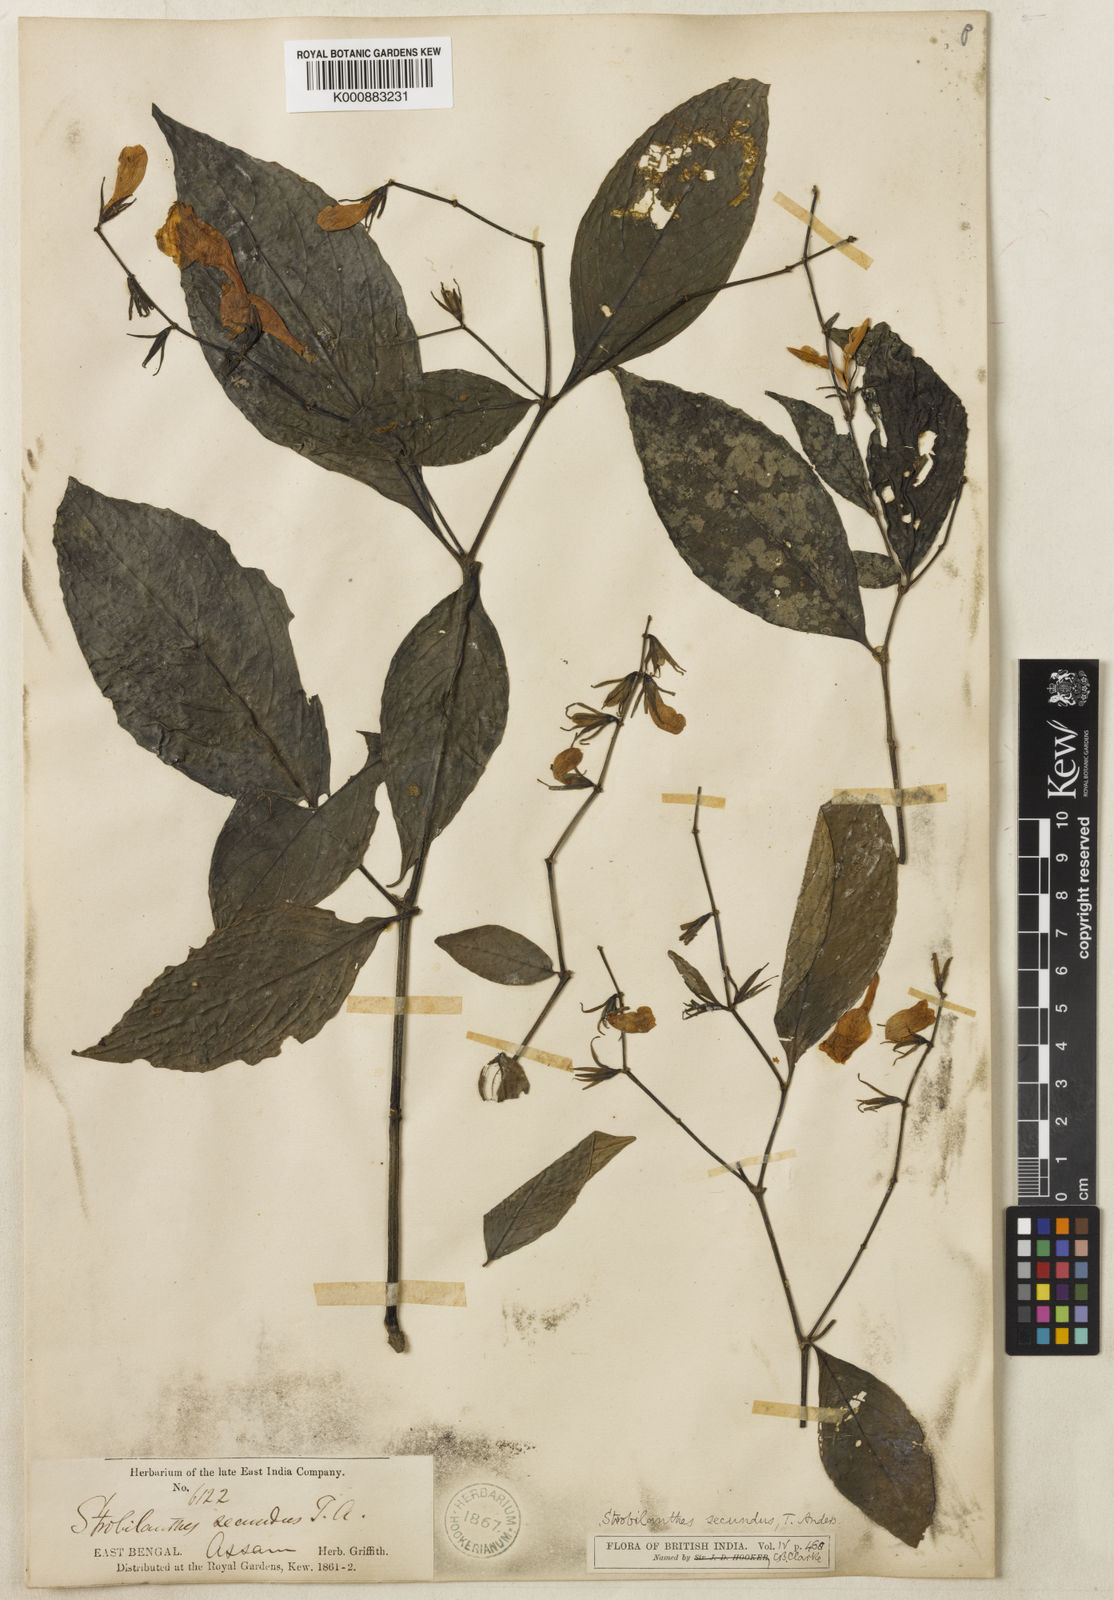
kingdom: Plantae
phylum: Tracheophyta
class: Magnoliopsida
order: Lamiales
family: Acanthaceae
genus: Strobilanthes
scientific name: Strobilanthes secunda
